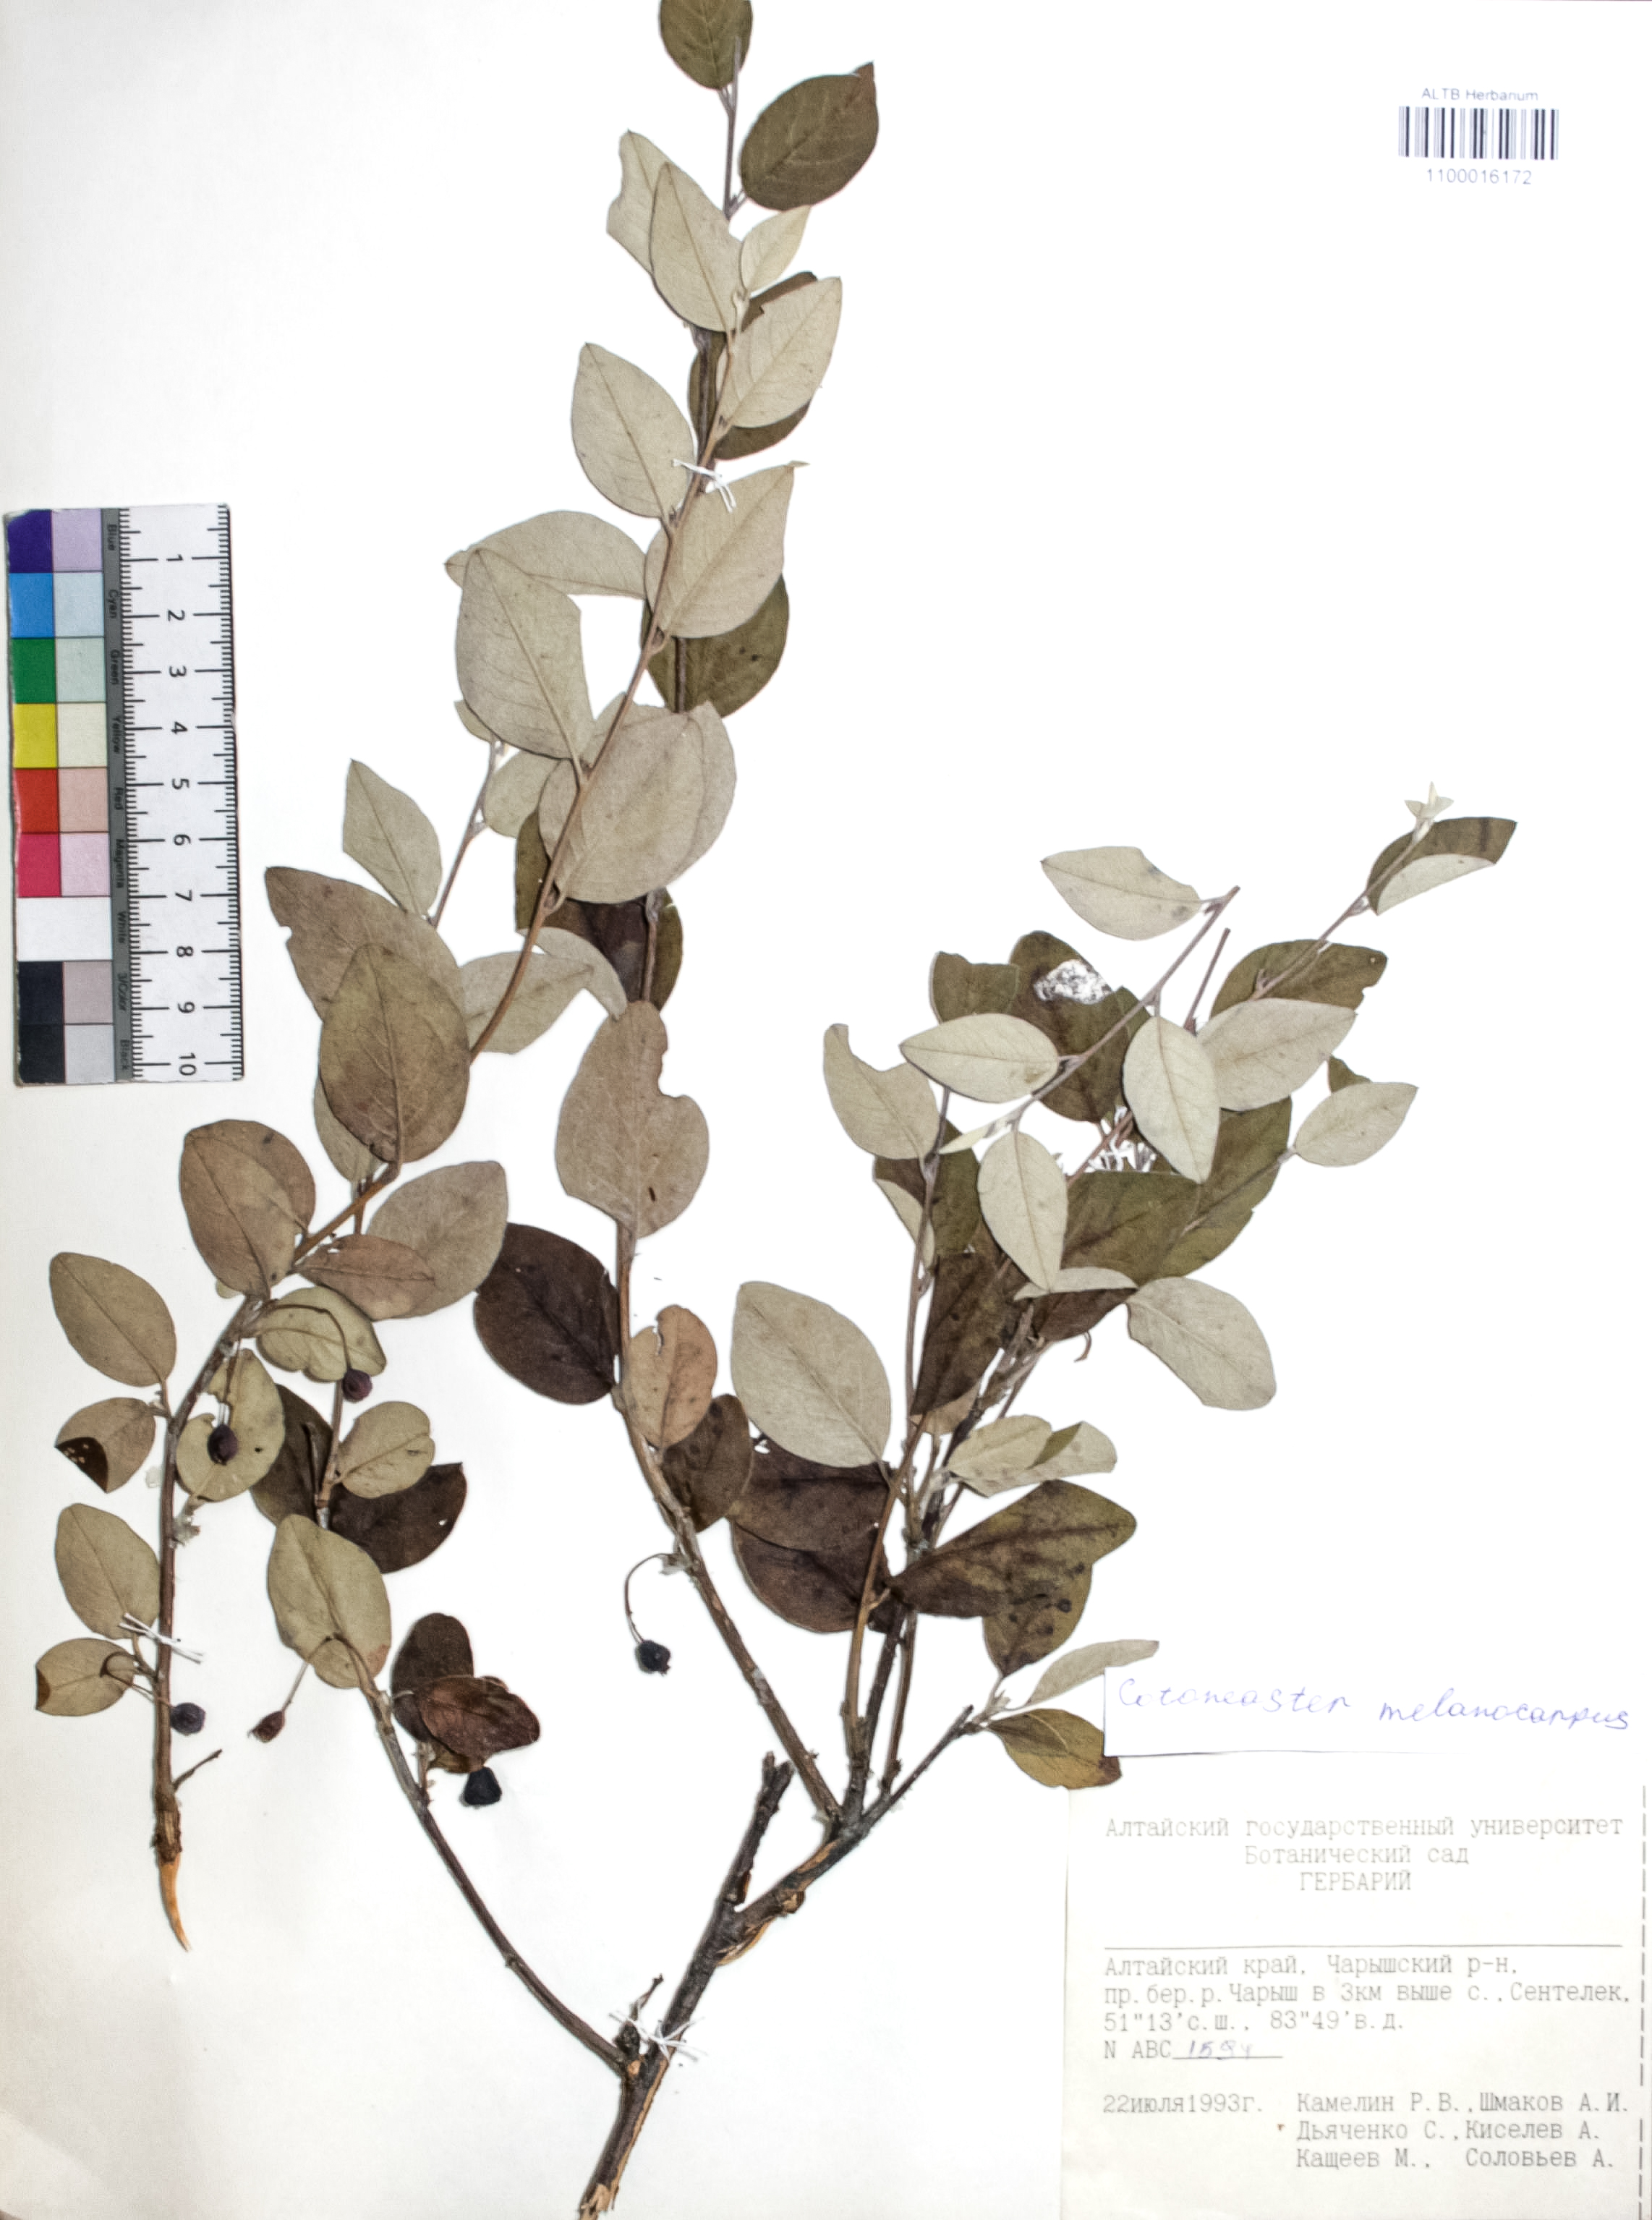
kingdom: Plantae
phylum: Tracheophyta
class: Magnoliopsida
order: Rosales
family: Rosaceae
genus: Cotoneaster
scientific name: Cotoneaster niger
